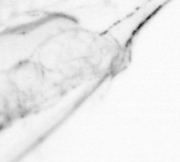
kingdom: Animalia
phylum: Chaetognatha
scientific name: Chaetognatha
